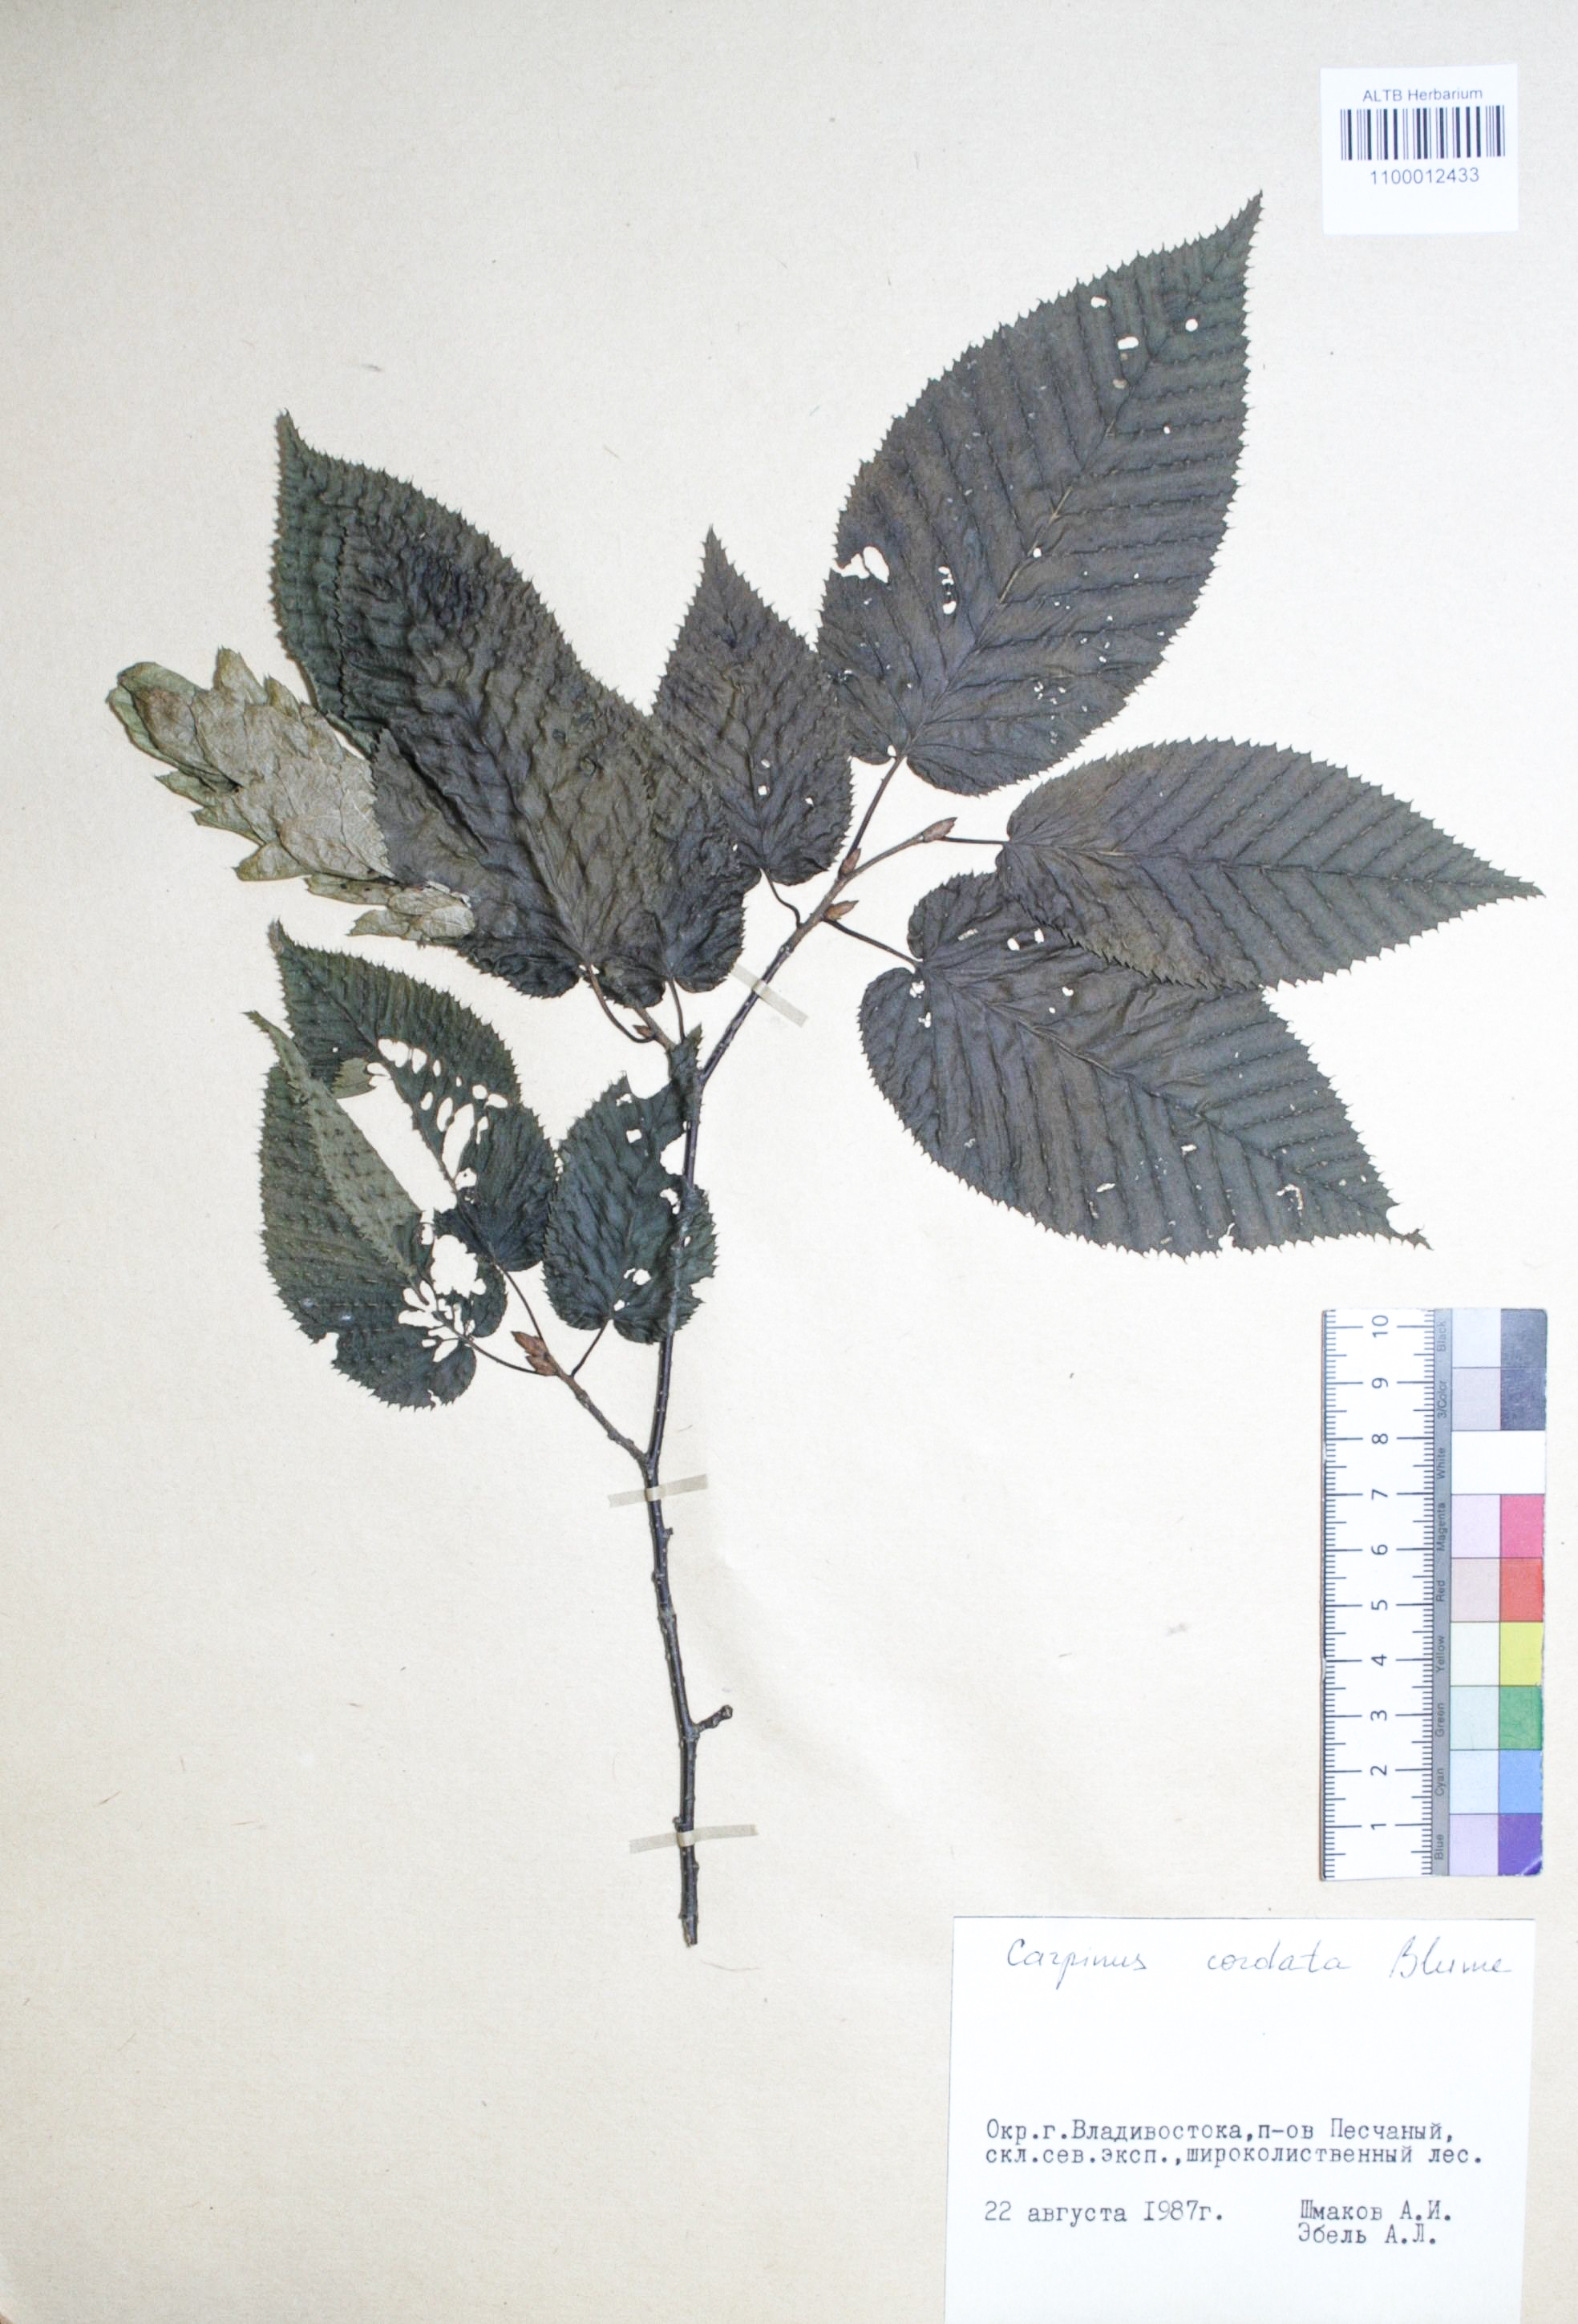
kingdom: Plantae
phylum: Tracheophyta
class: Magnoliopsida
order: Fagales
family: Betulaceae
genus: Carpinus
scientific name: Carpinus cordata
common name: Sawa hornbeam
